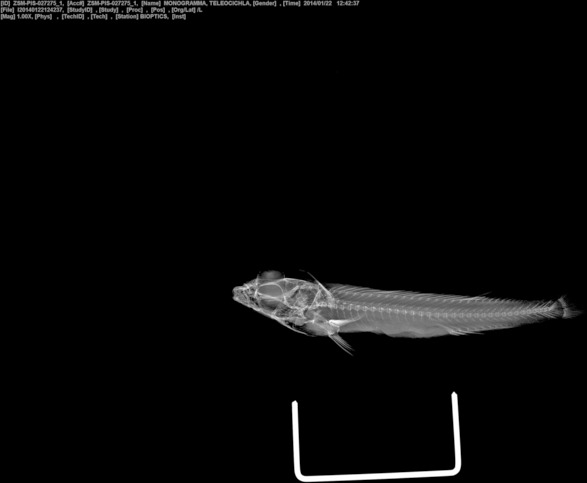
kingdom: Animalia
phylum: Chordata
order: Perciformes
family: Cichlidae
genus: Teleocichla
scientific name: Teleocichla monogramma
